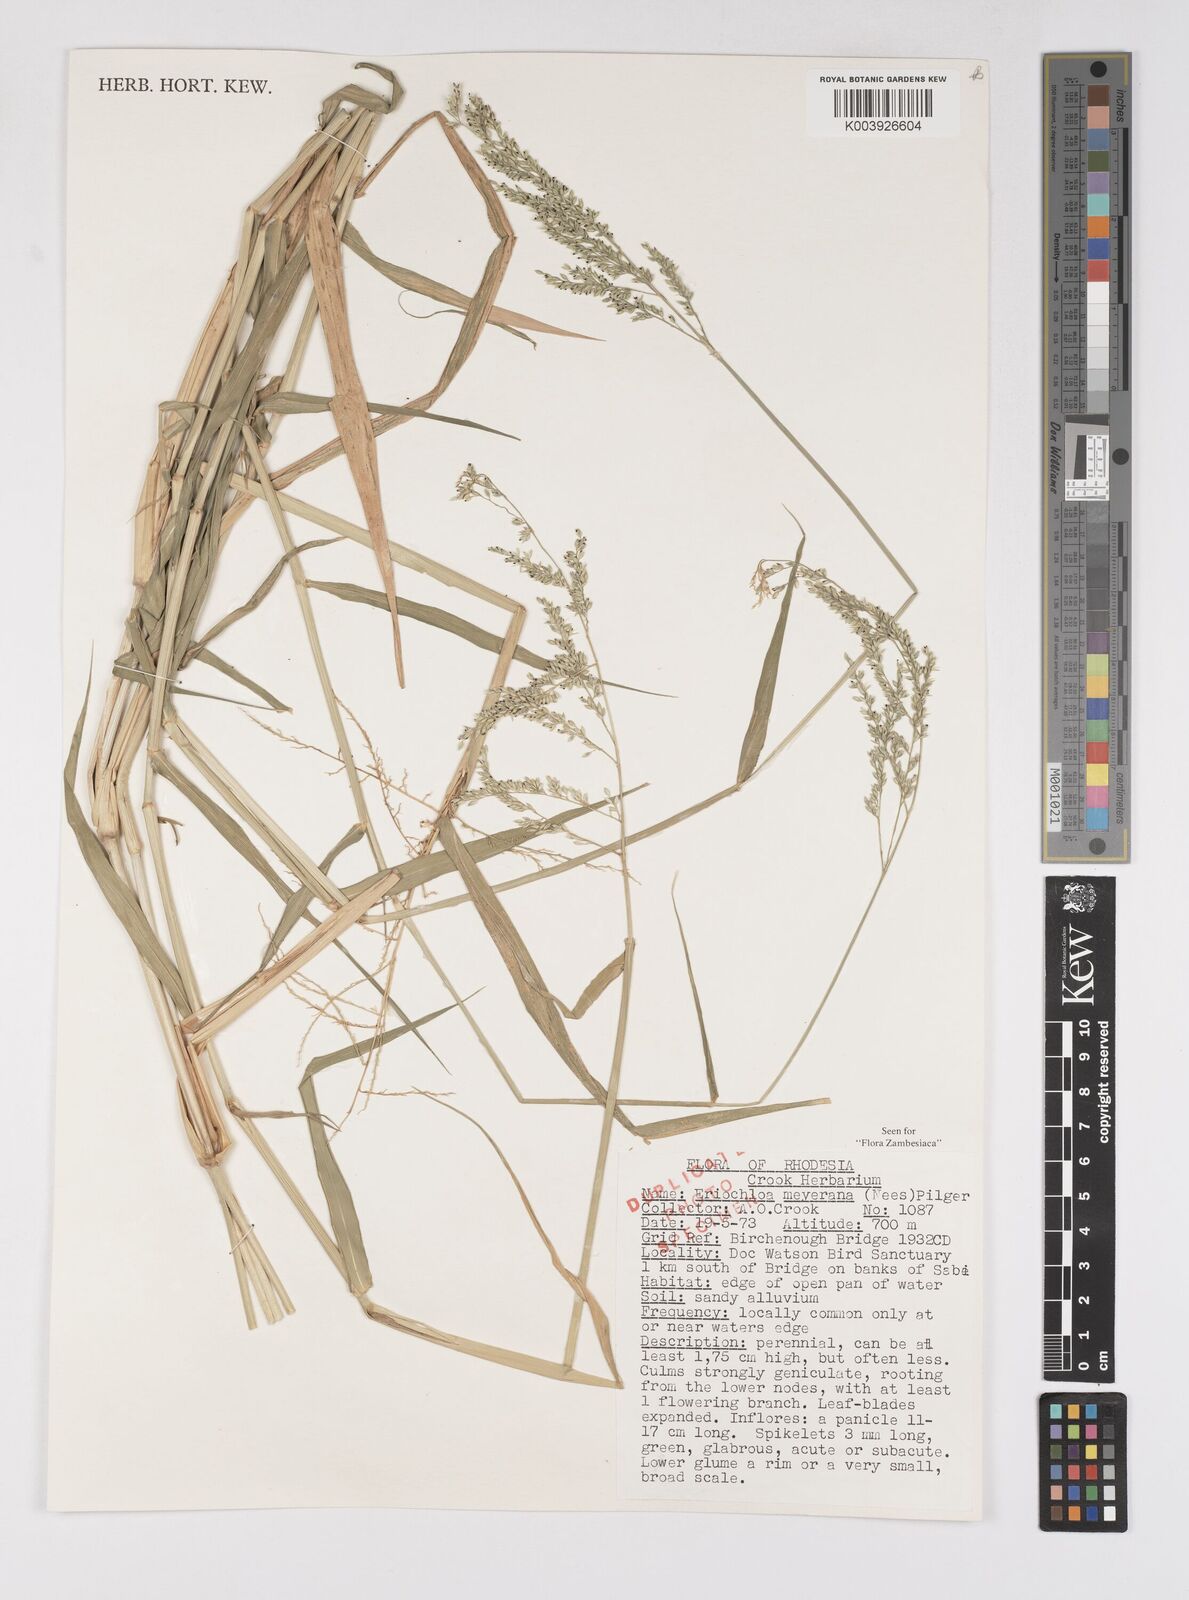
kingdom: Plantae
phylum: Tracheophyta
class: Liliopsida
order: Poales
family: Poaceae
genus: Eriochloa
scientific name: Eriochloa meyeriana
